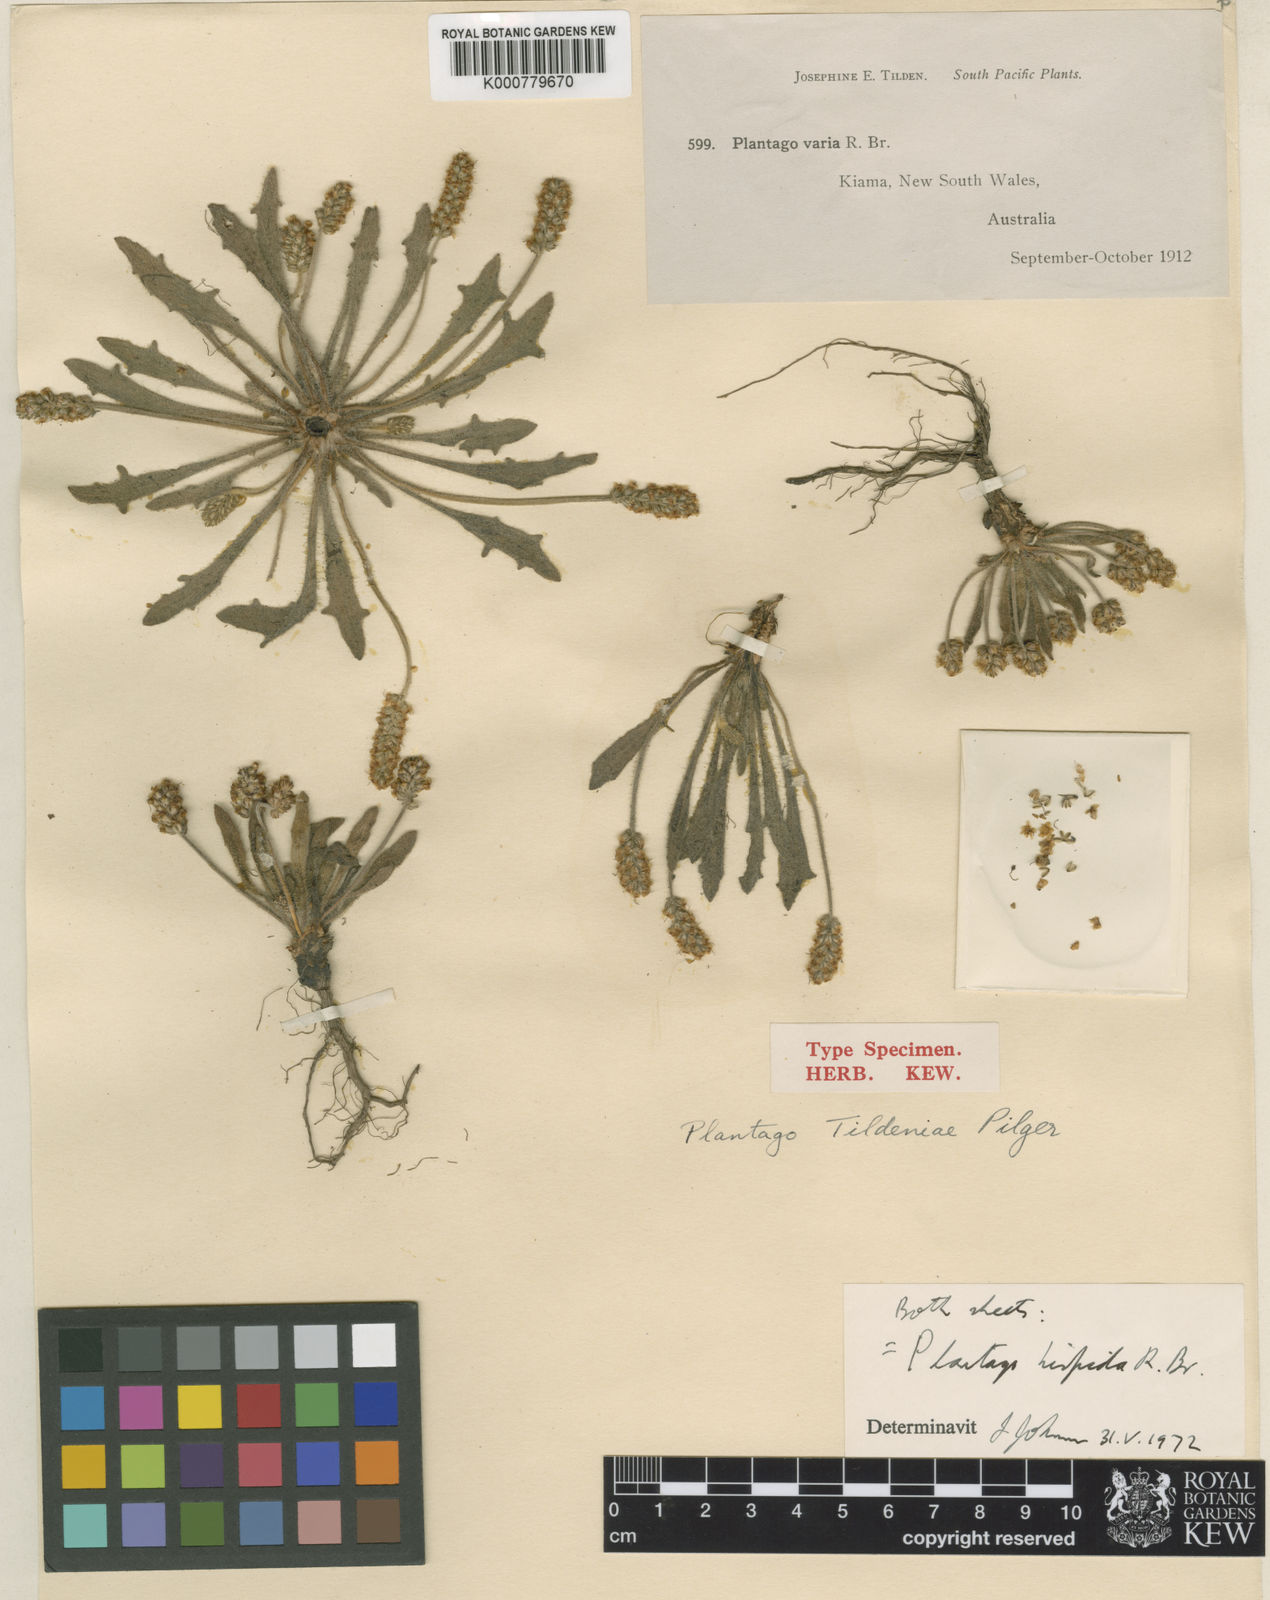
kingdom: Plantae
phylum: Tracheophyta
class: Magnoliopsida
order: Lamiales
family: Plantaginaceae
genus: Plantago
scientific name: Plantago hispida
